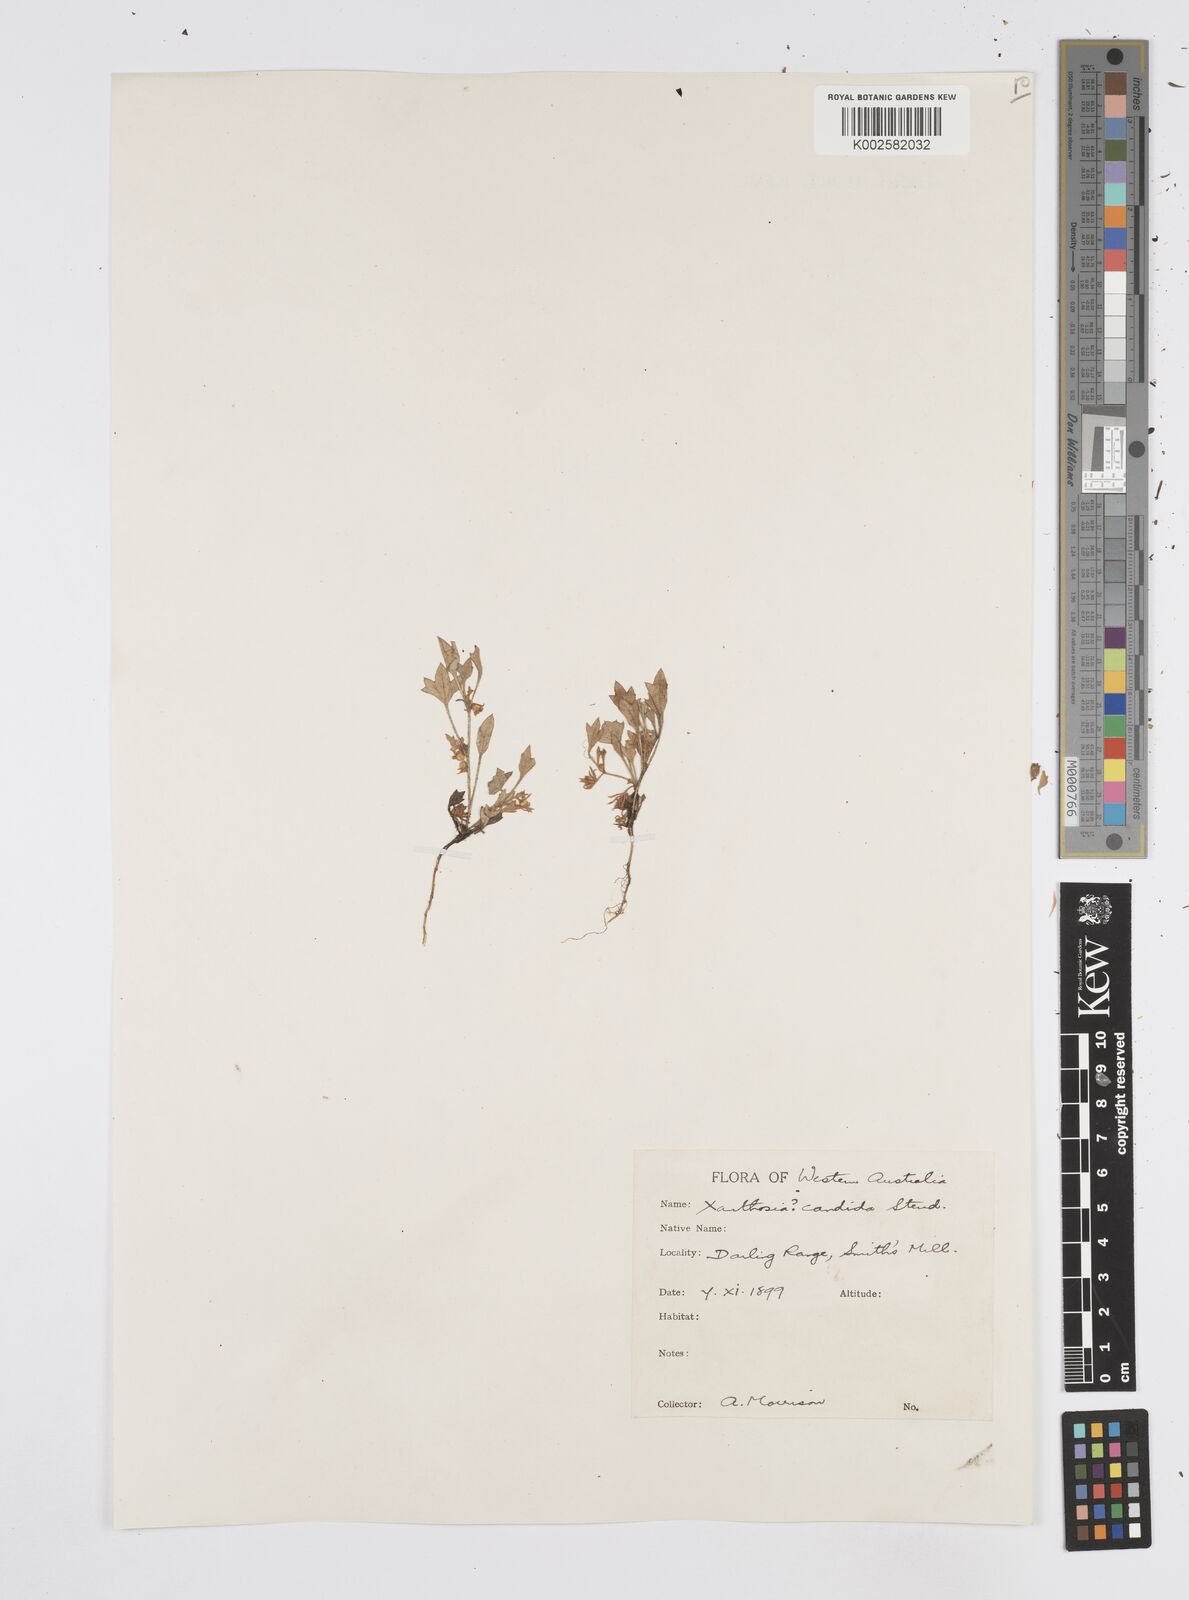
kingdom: Plantae
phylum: Tracheophyta
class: Magnoliopsida
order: Apiales
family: Apiaceae
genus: Xanthosia
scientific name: Xanthosia candida
